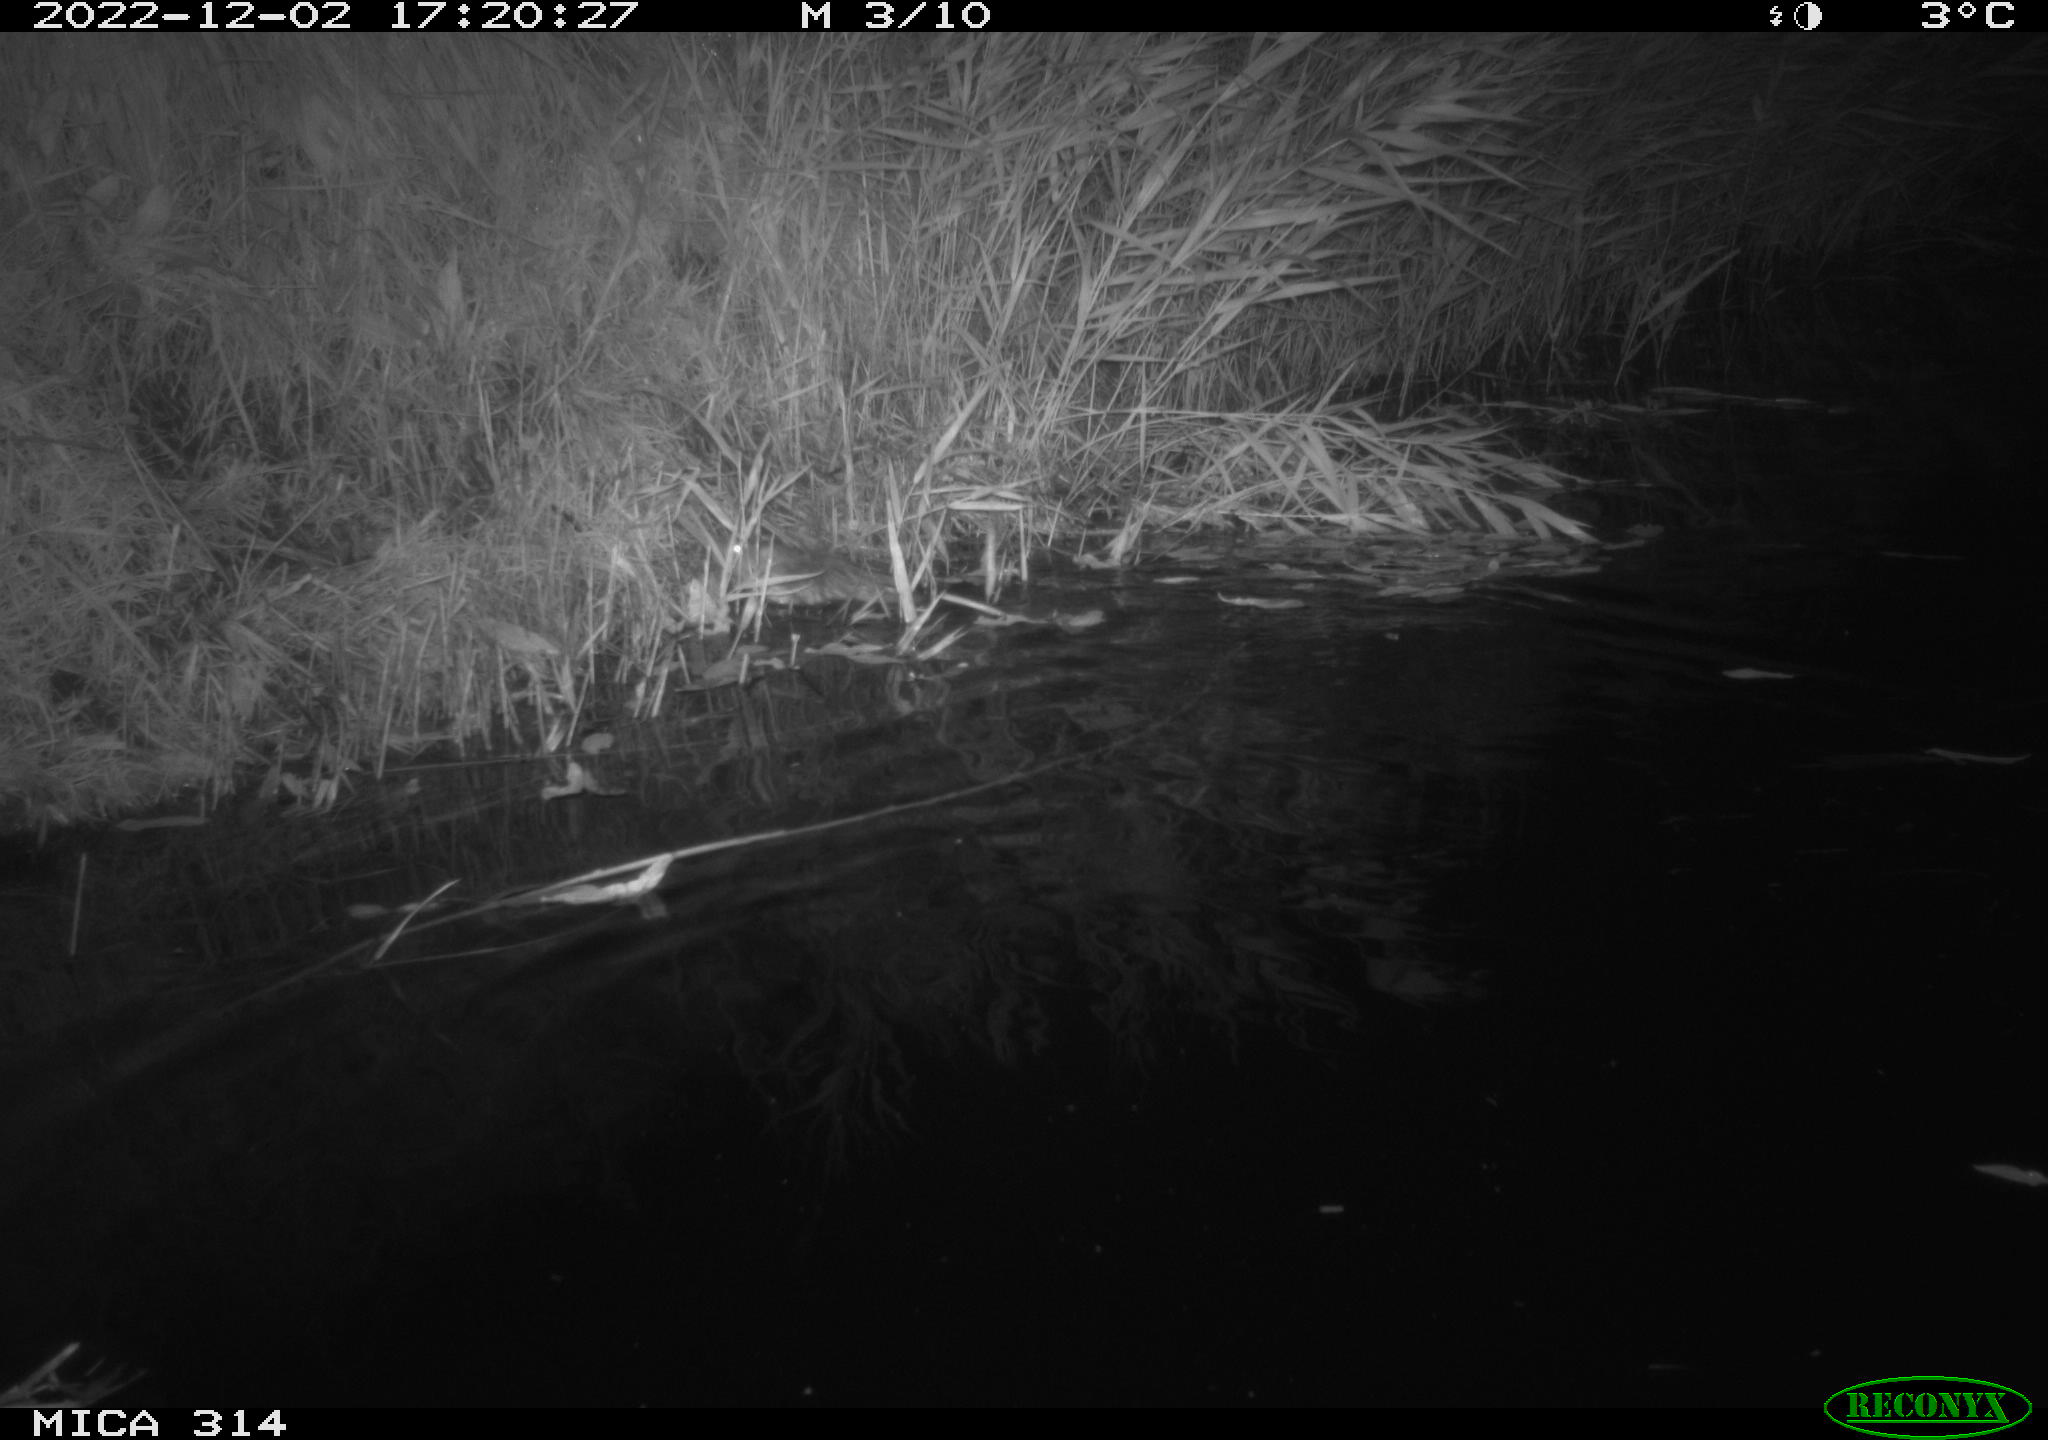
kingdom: Animalia
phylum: Chordata
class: Mammalia
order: Rodentia
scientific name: Rodentia
